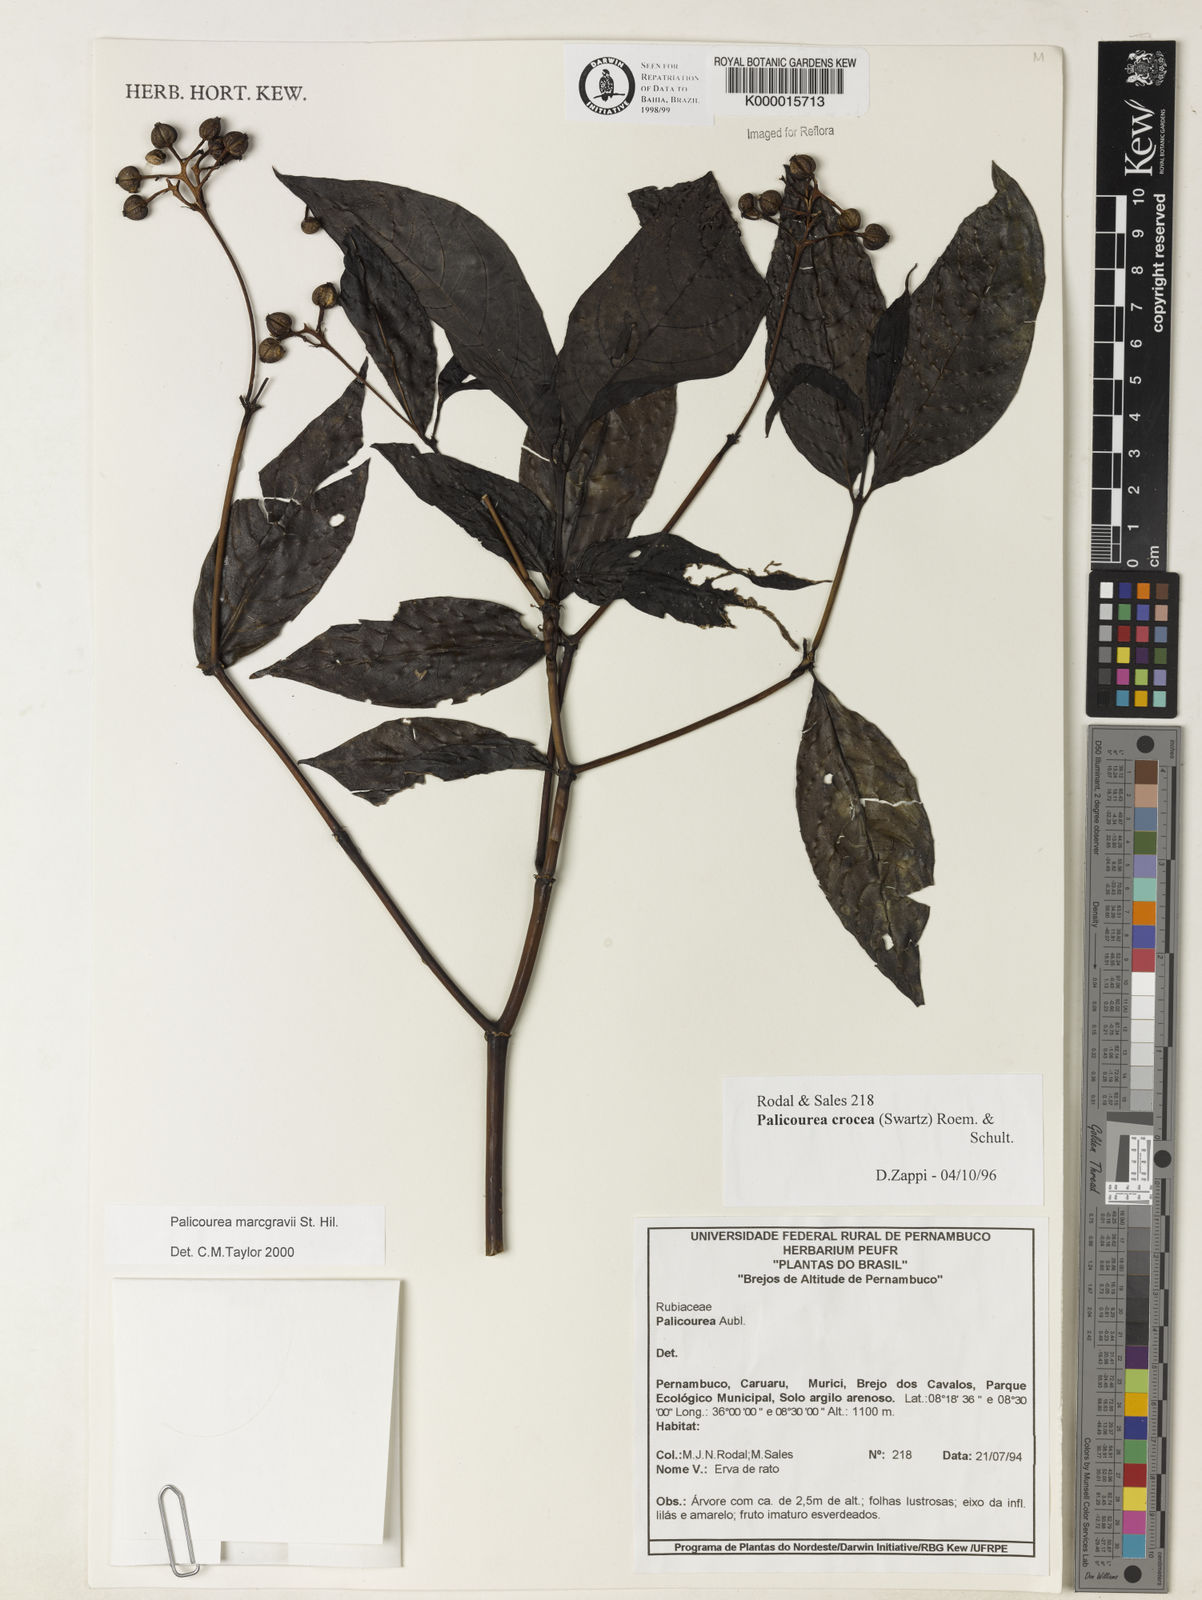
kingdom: Plantae
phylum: Tracheophyta
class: Magnoliopsida
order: Gentianales
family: Rubiaceae
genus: Palicourea
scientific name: Palicourea marcgravii
